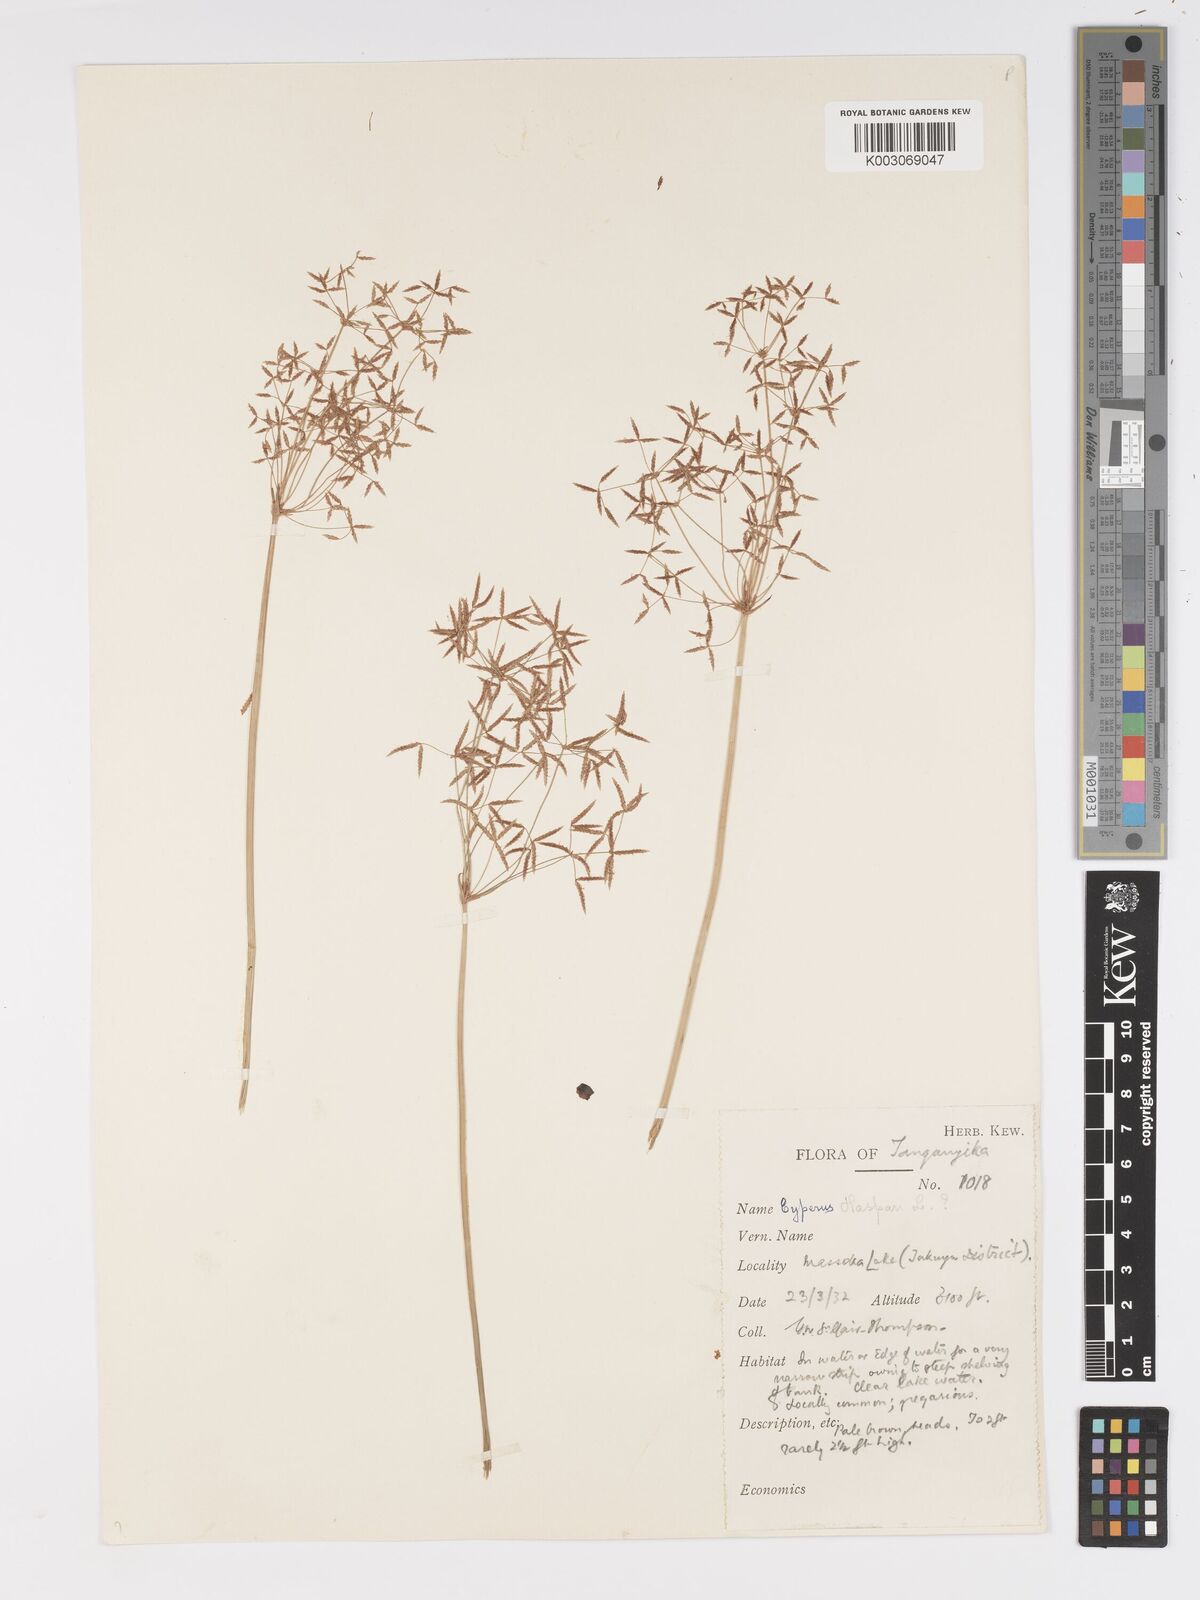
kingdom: Plantae
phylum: Tracheophyta
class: Liliopsida
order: Poales
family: Cyperaceae
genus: Cyperus
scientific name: Cyperus haspan
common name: Haspan flatsedge
